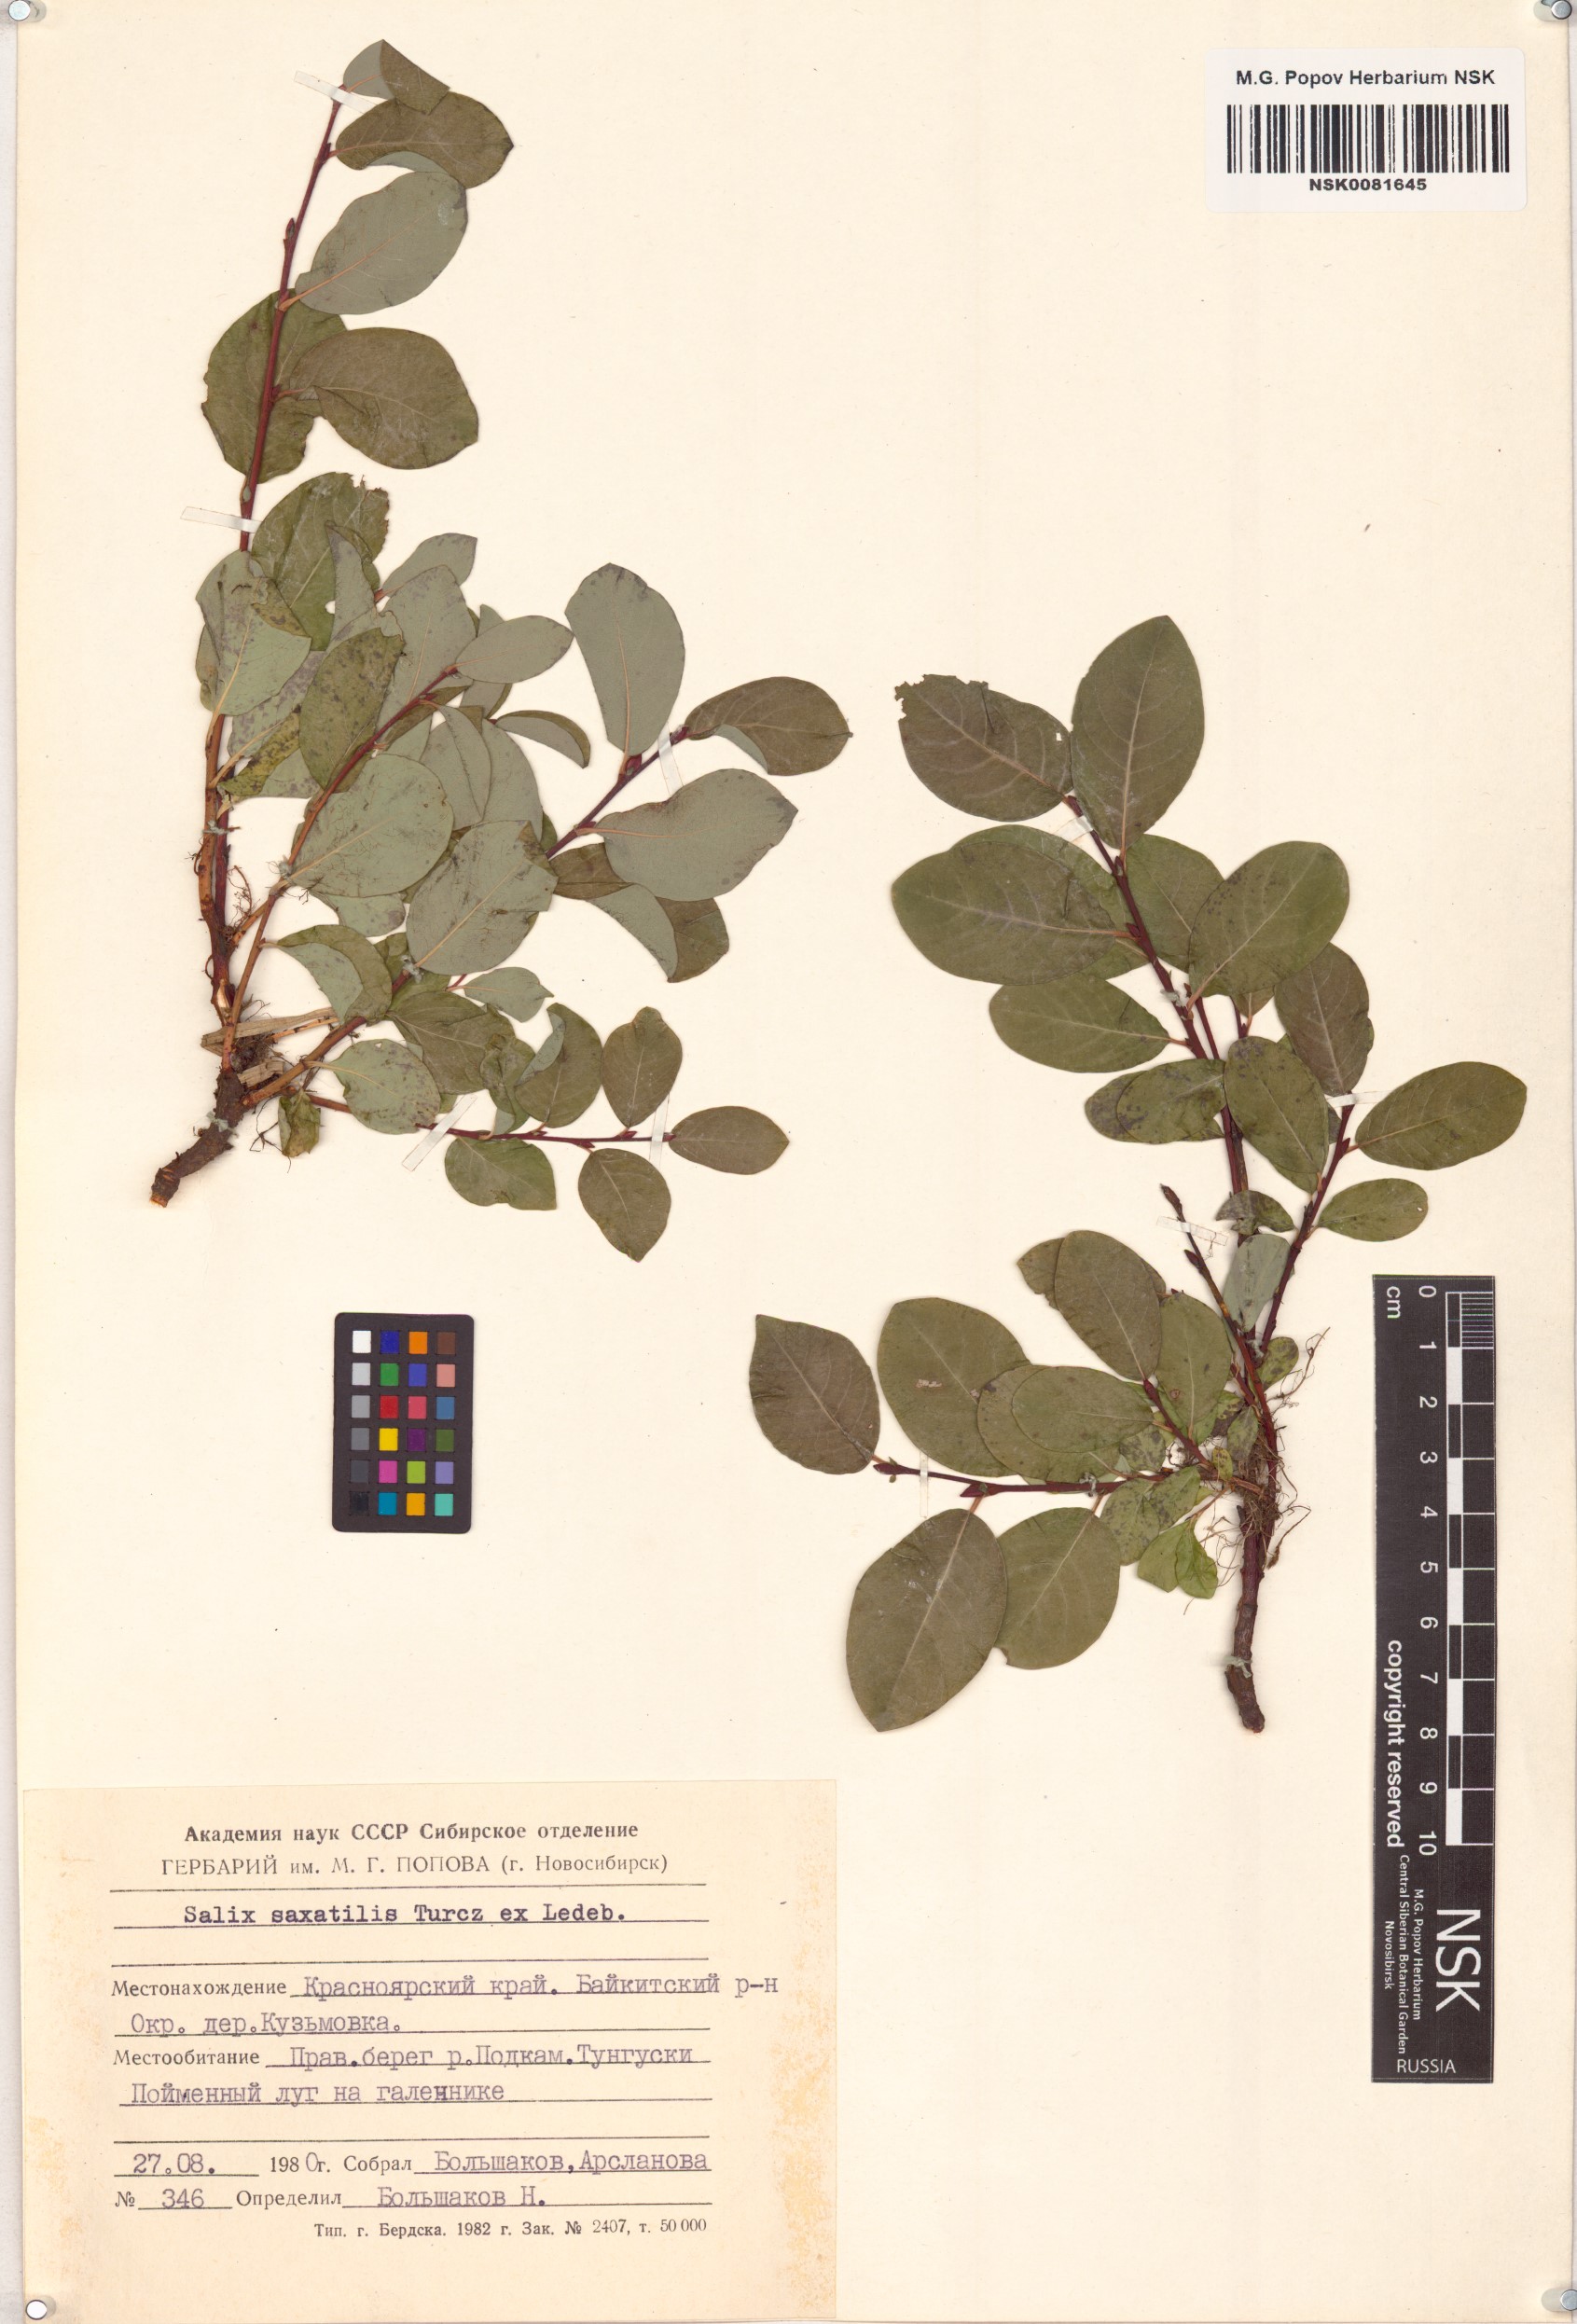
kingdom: Plantae
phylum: Tracheophyta
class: Magnoliopsida
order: Malpighiales
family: Salicaceae
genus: Salix
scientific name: Salix saxatilis
